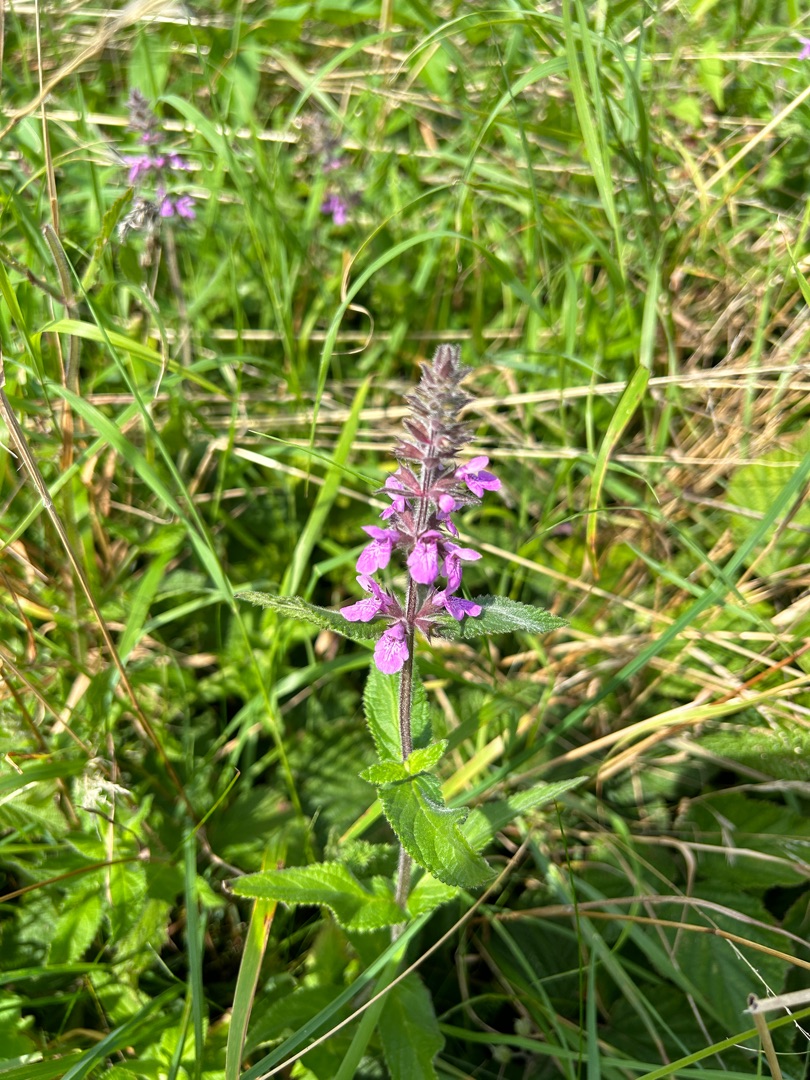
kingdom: Plantae
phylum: Tracheophyta
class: Magnoliopsida
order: Lamiales
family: Lamiaceae
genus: Stachys
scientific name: Stachys palustris
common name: Kær-galtetand
